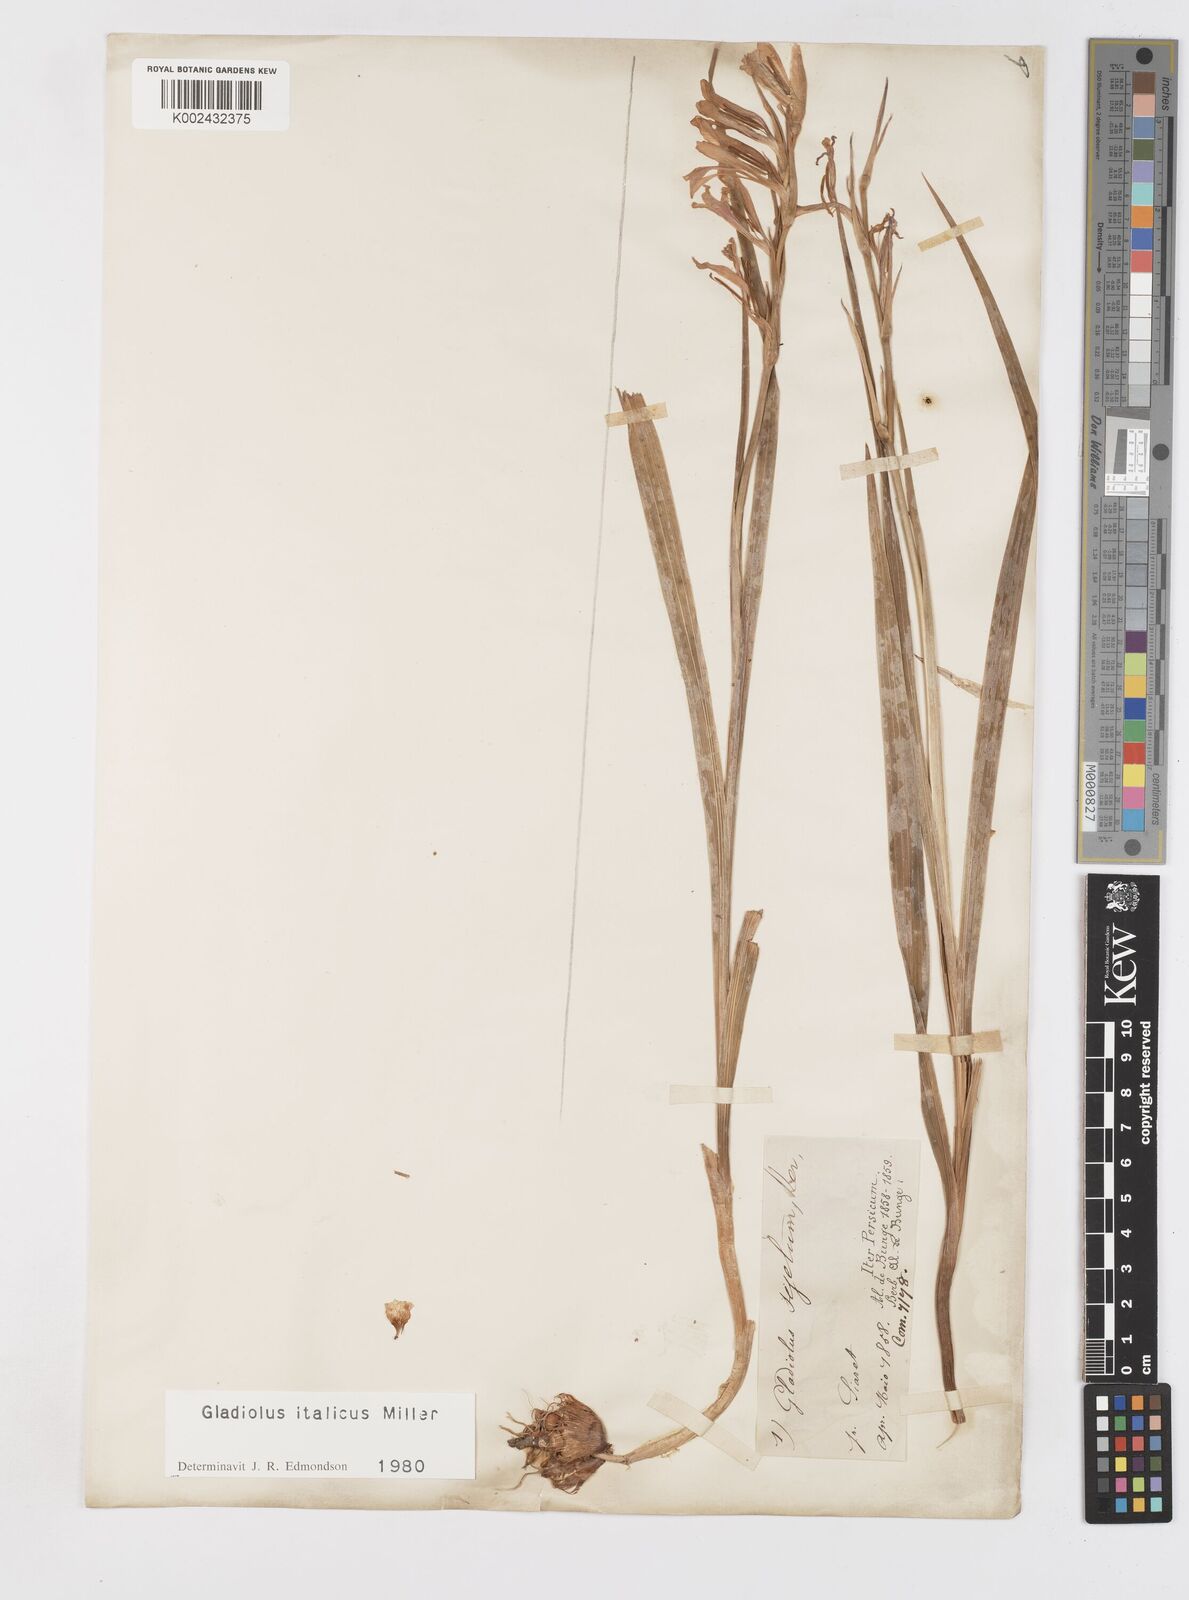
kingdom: Plantae
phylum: Tracheophyta
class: Liliopsida
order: Asparagales
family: Iridaceae
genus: Gladiolus
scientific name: Gladiolus italicus
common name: Field gladiolus
